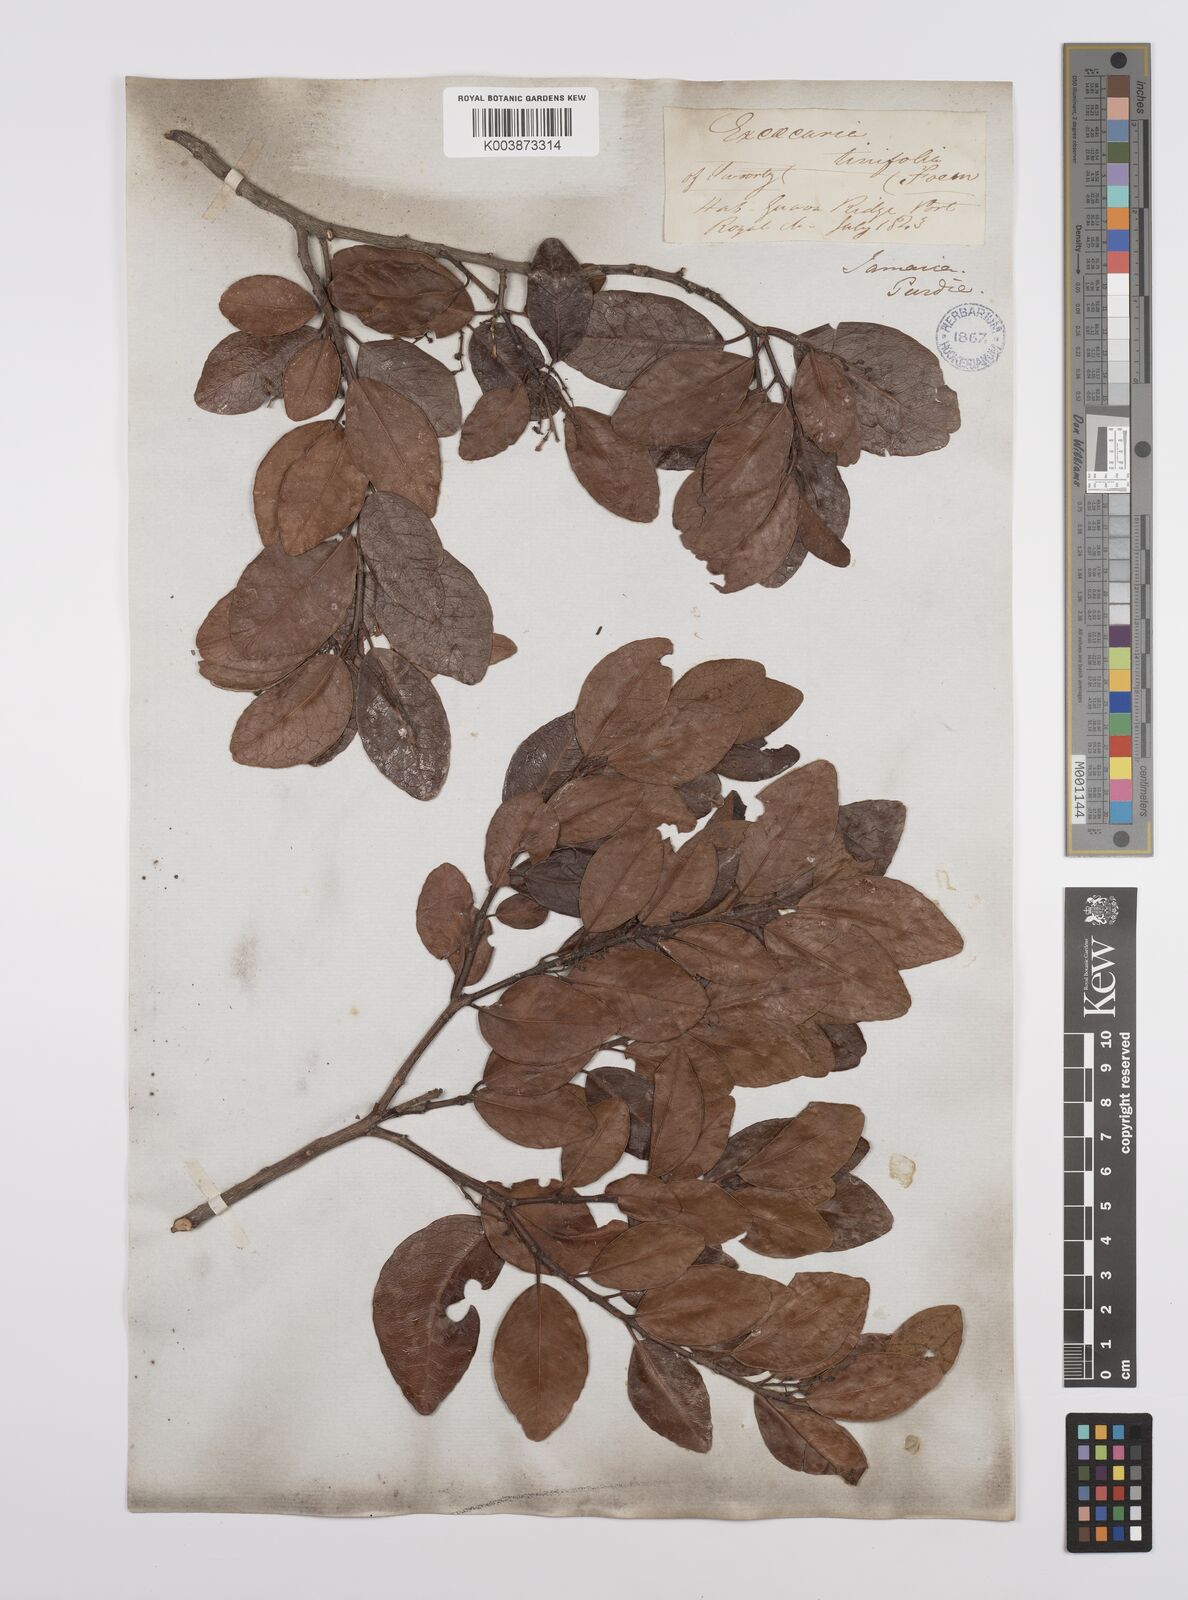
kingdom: Plantae
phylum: Tracheophyta
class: Magnoliopsida
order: Malpighiales
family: Euphorbiaceae
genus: Dendrocousinsia
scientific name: Dendrocousinsia elliptica
